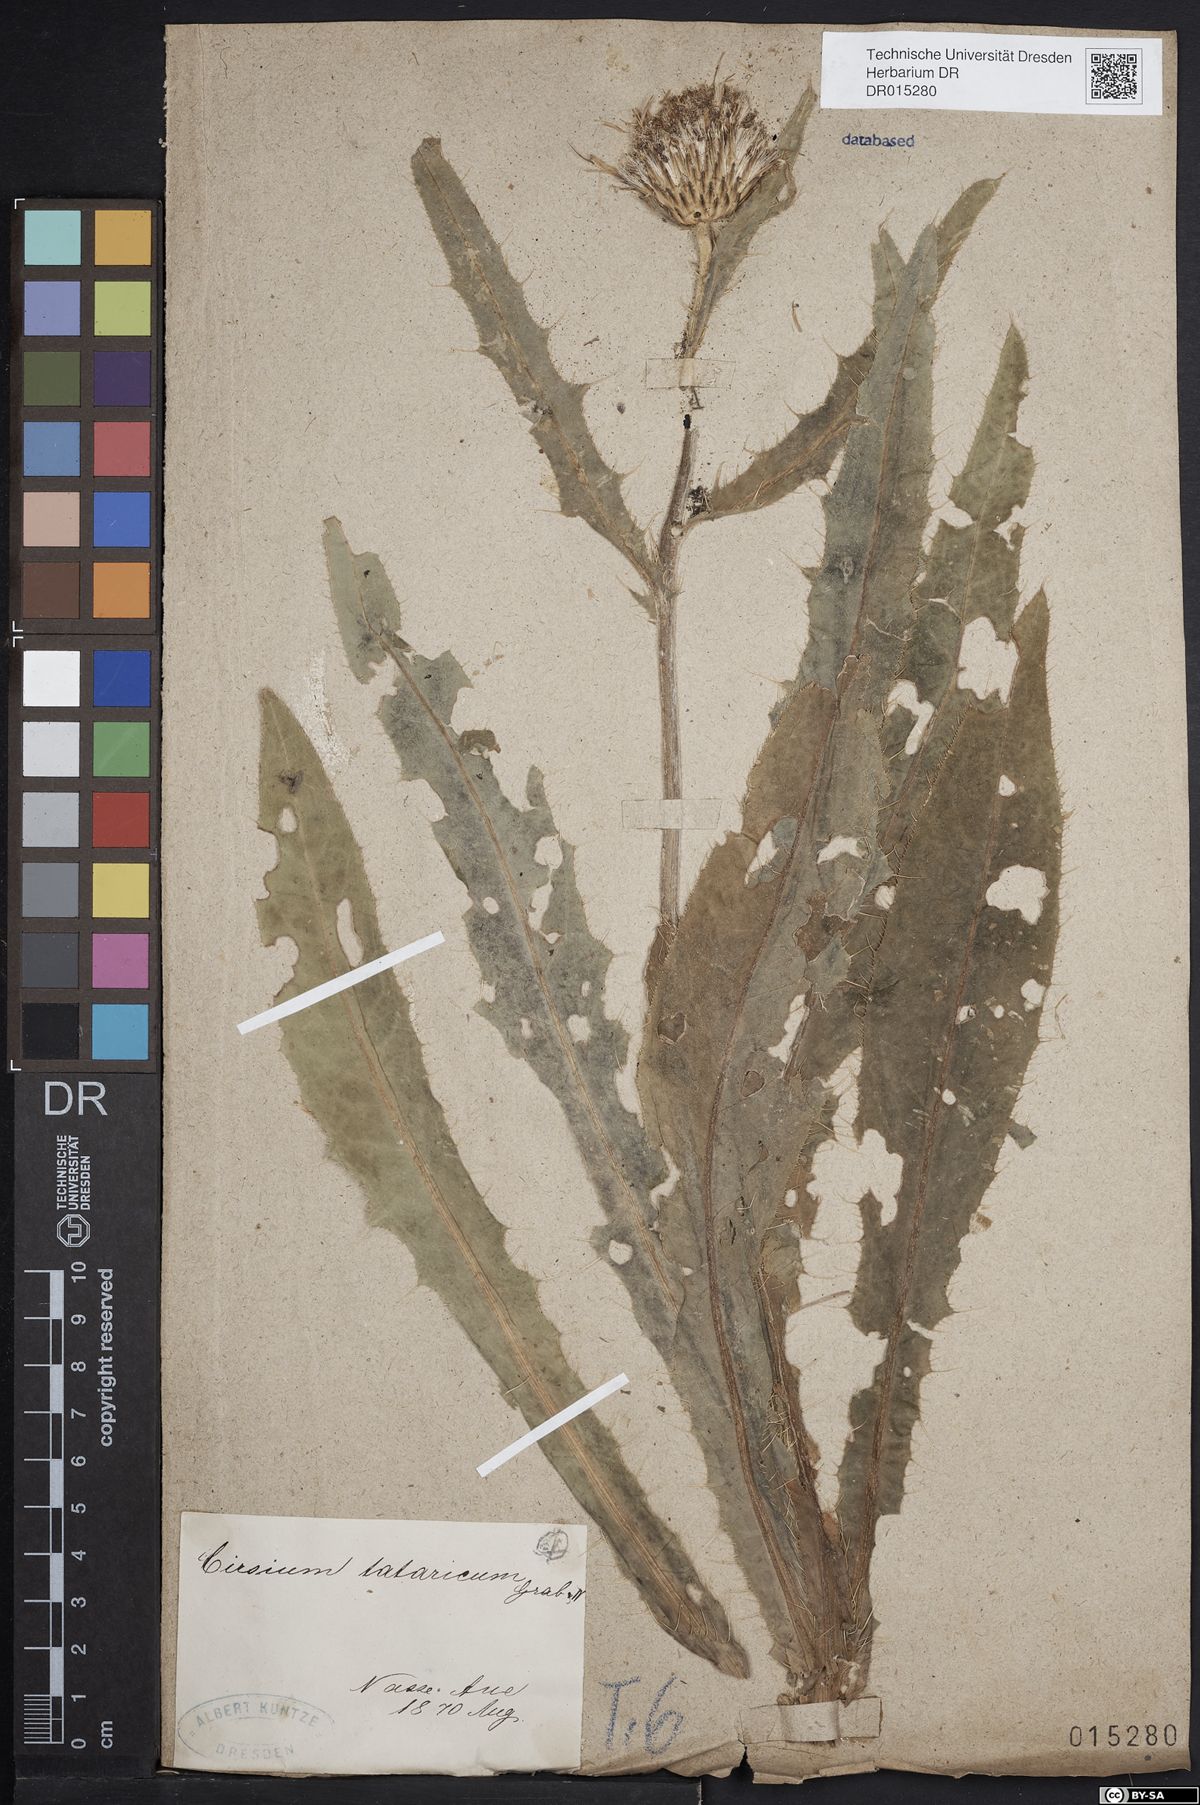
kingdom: Plantae
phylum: Tracheophyta
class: Magnoliopsida
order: Asterales
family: Asteraceae
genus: Cirsium
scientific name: Cirsium tataricum
